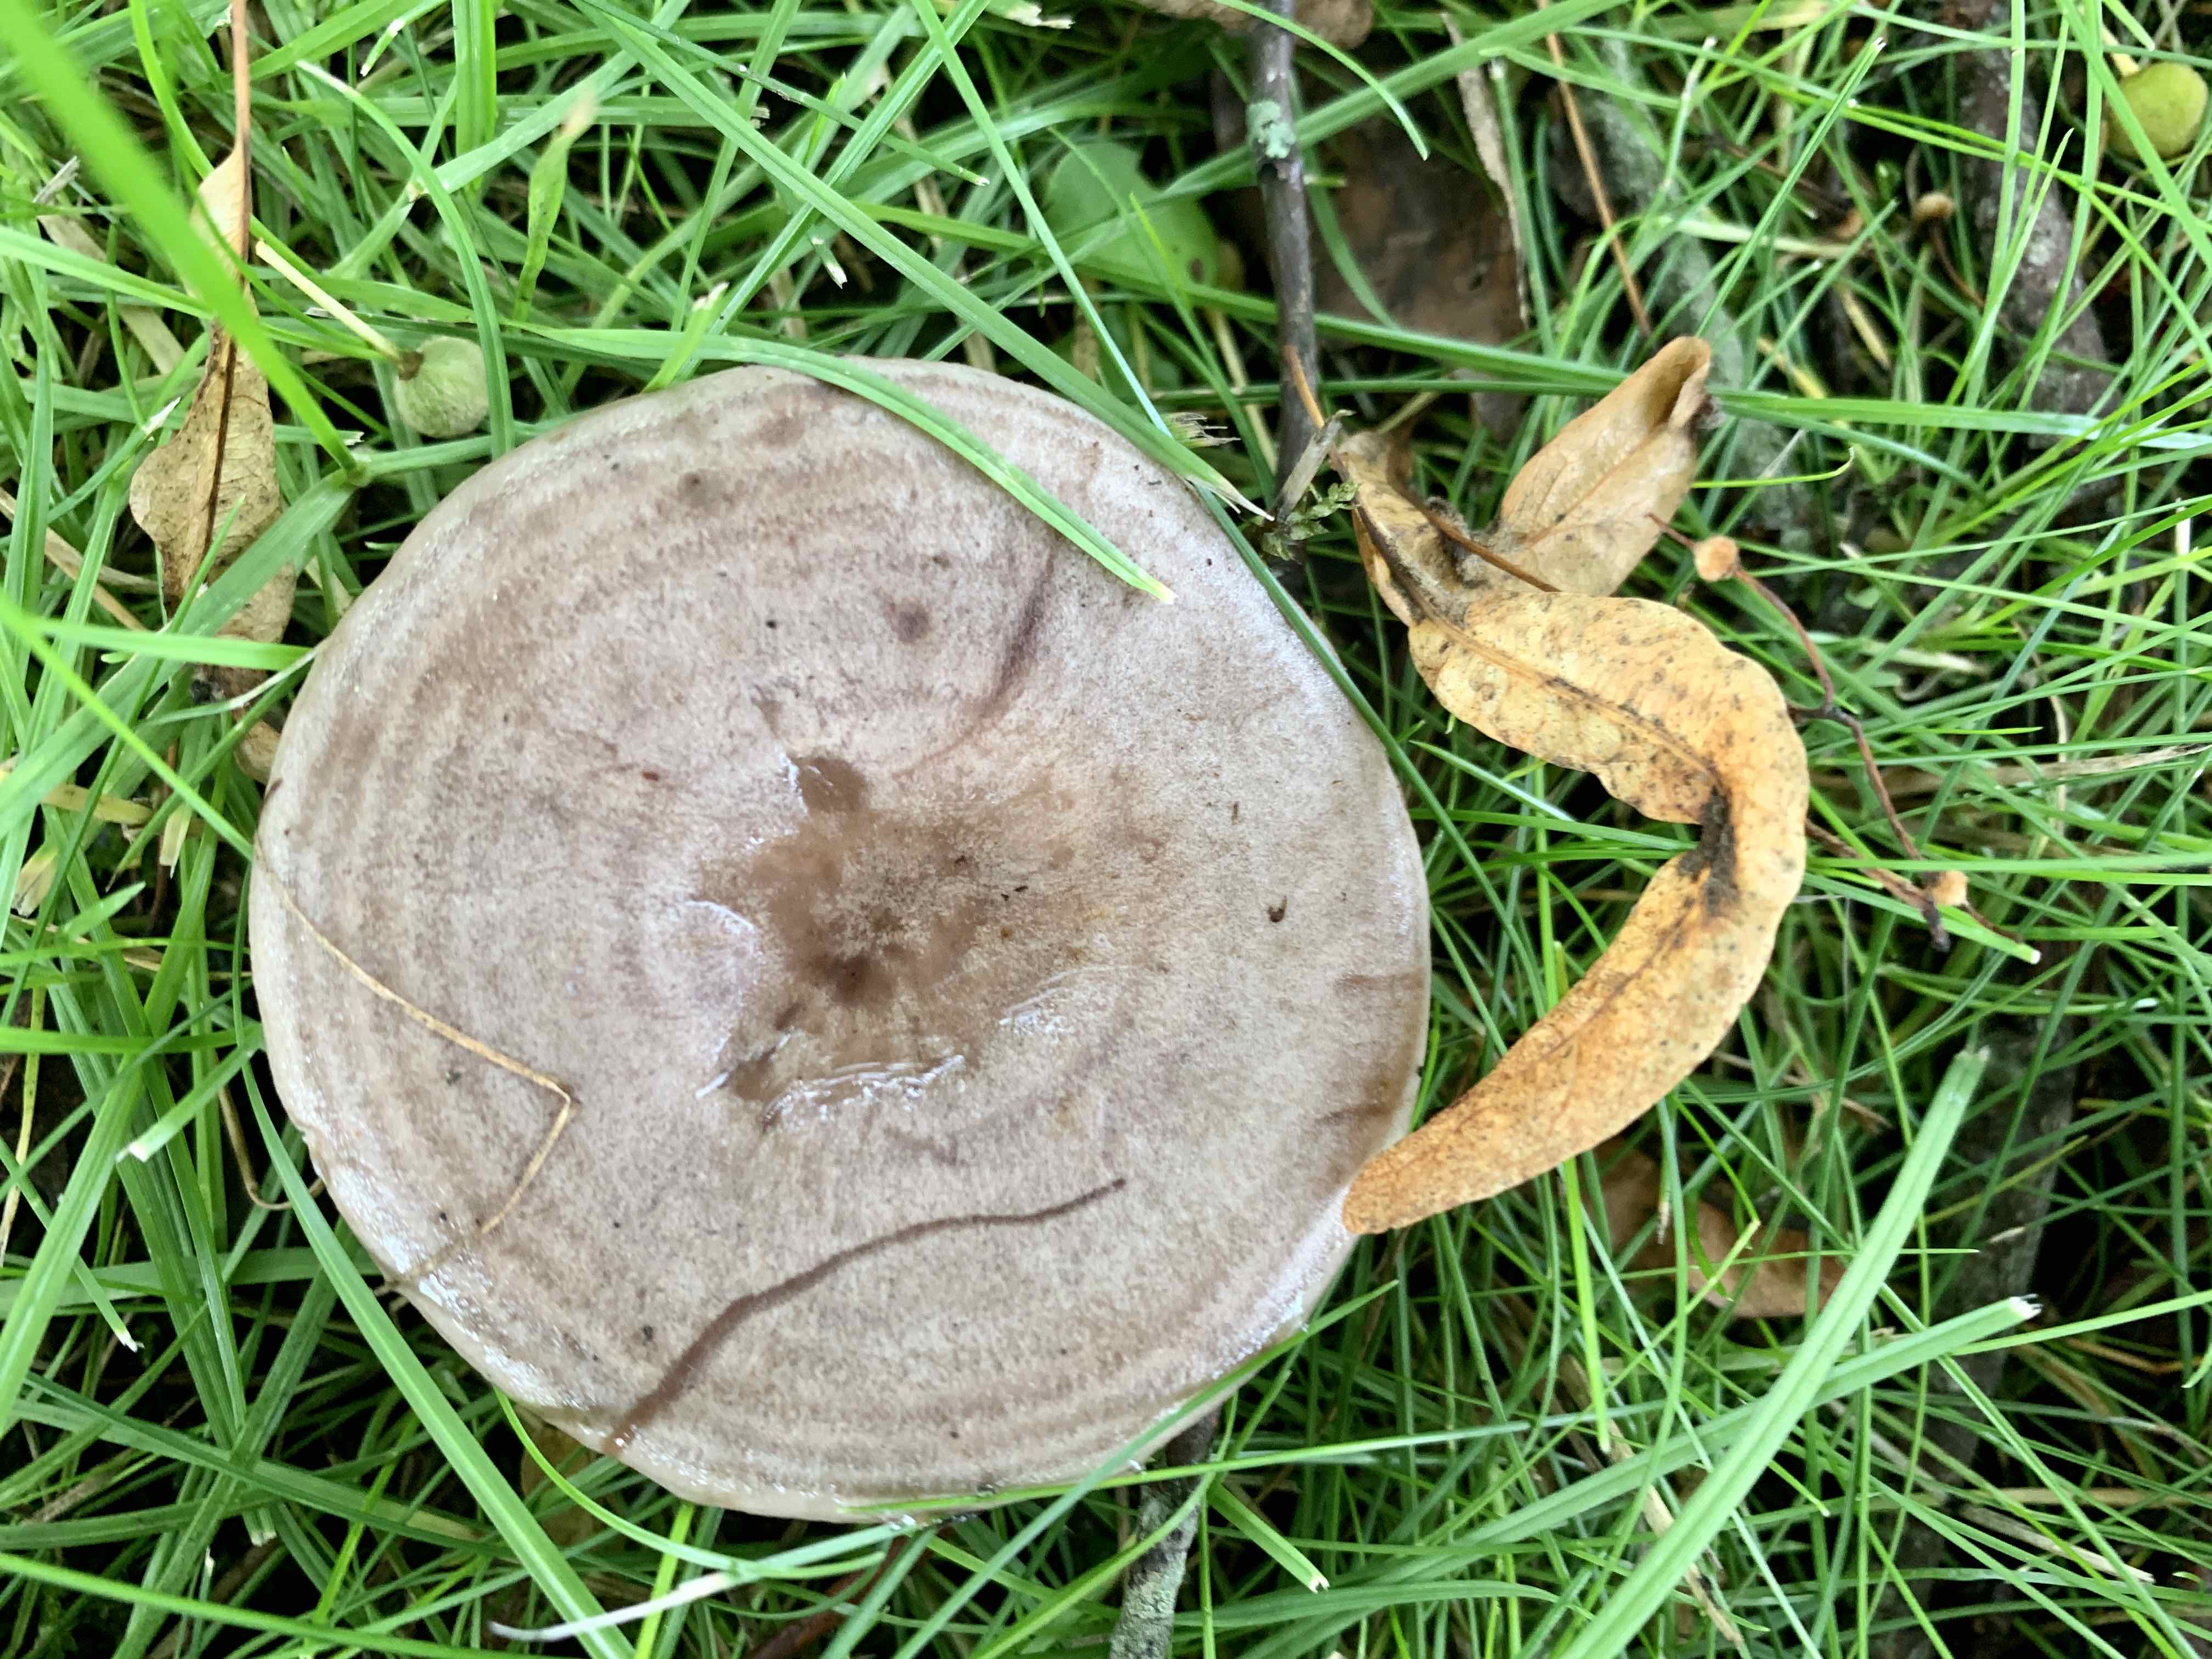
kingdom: Fungi
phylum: Basidiomycota
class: Agaricomycetes
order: Russulales
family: Russulaceae
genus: Lactarius
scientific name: Lactarius circellatus
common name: avnbøg-mælkehat
